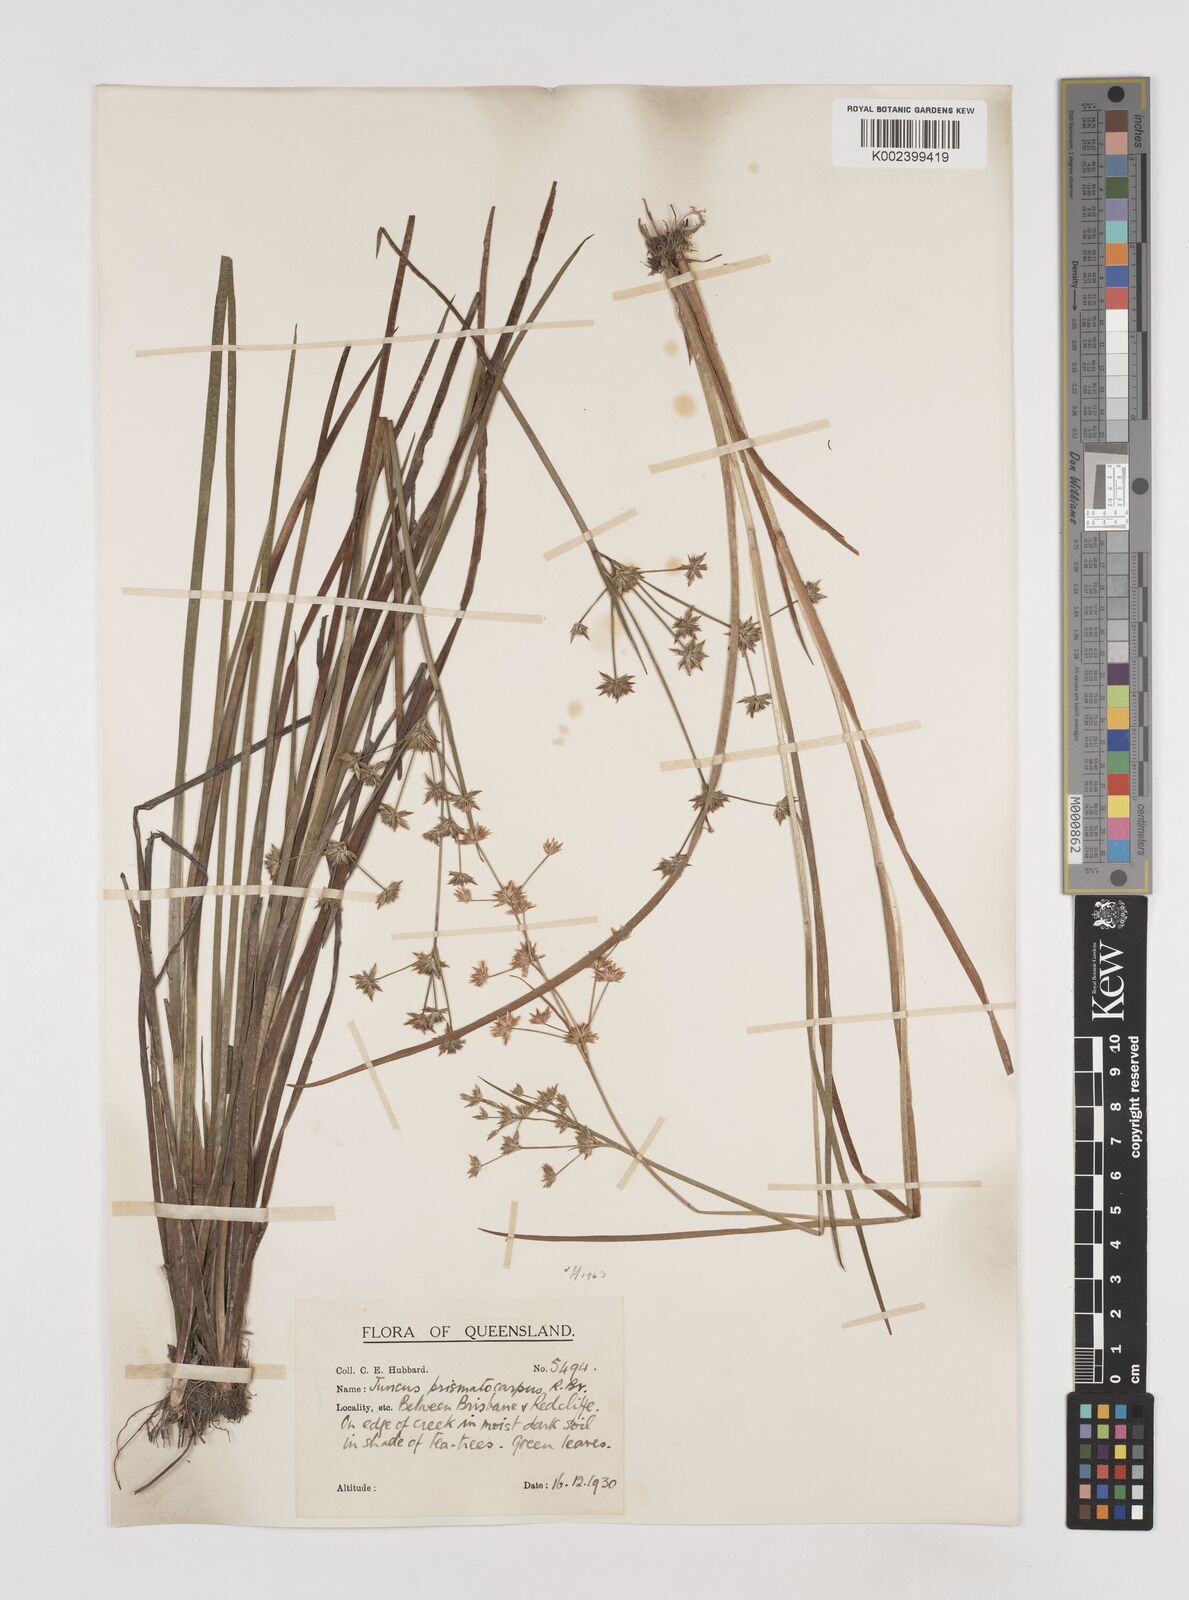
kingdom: Plantae
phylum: Tracheophyta
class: Liliopsida
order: Poales
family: Juncaceae
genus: Juncus
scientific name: Juncus prismatocarpus
